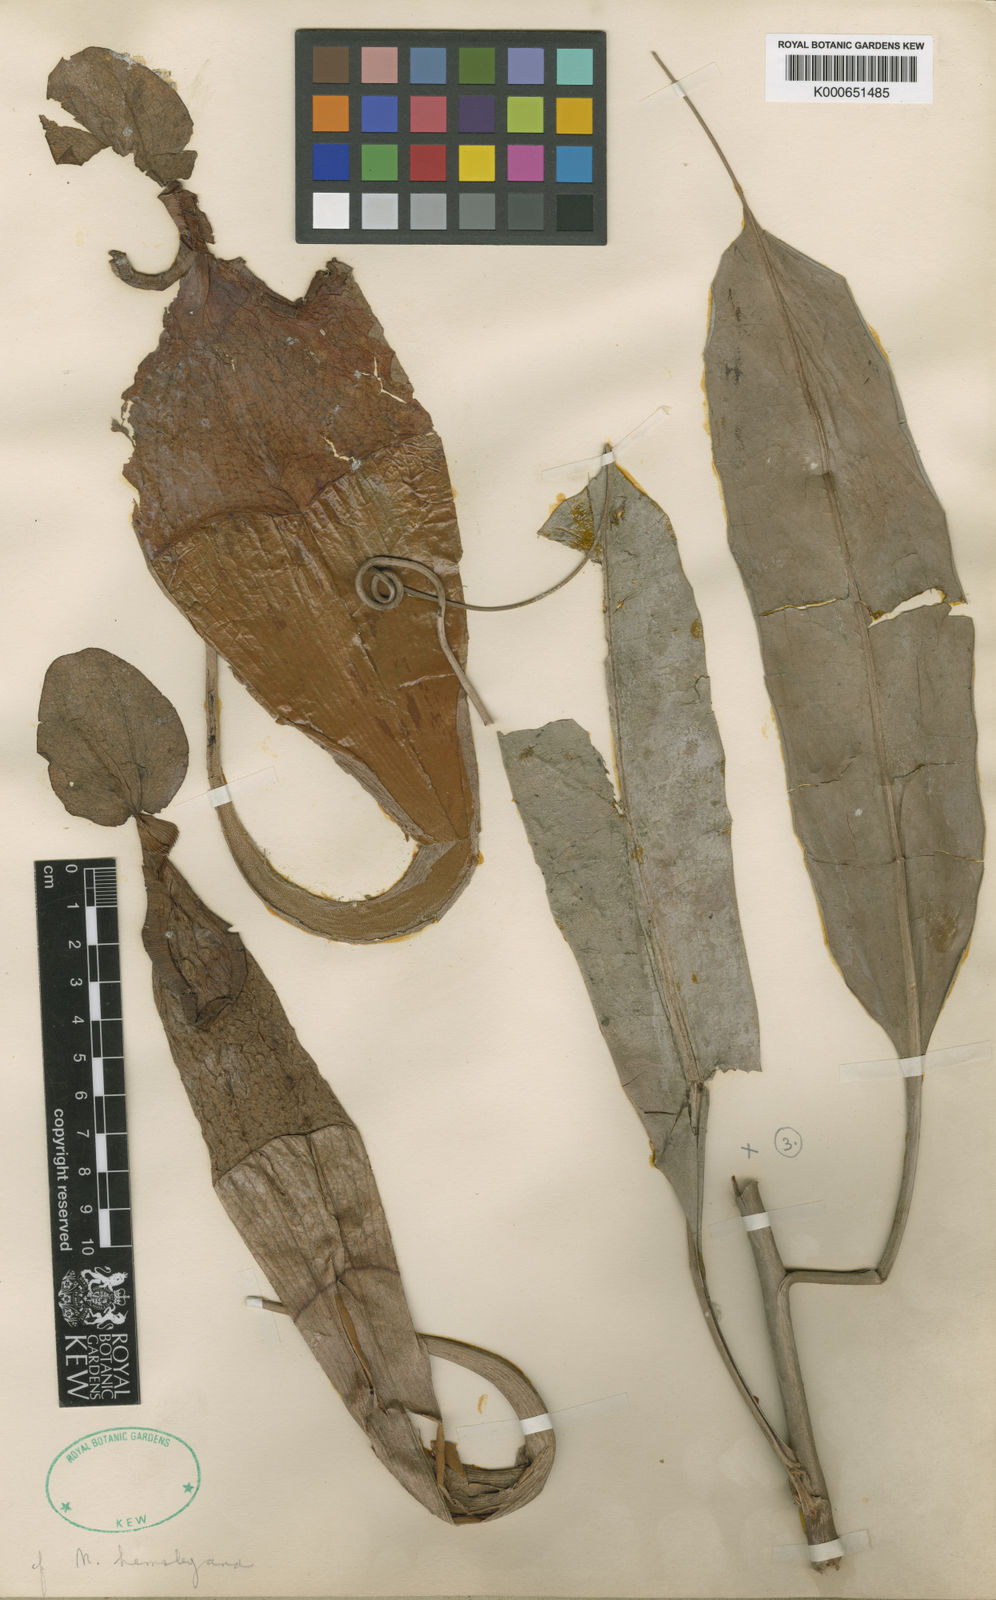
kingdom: Plantae
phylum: Tracheophyta
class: Magnoliopsida
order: Caryophyllales
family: Nepenthaceae
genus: Nepenthes
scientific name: Nepenthes rafflesiana
